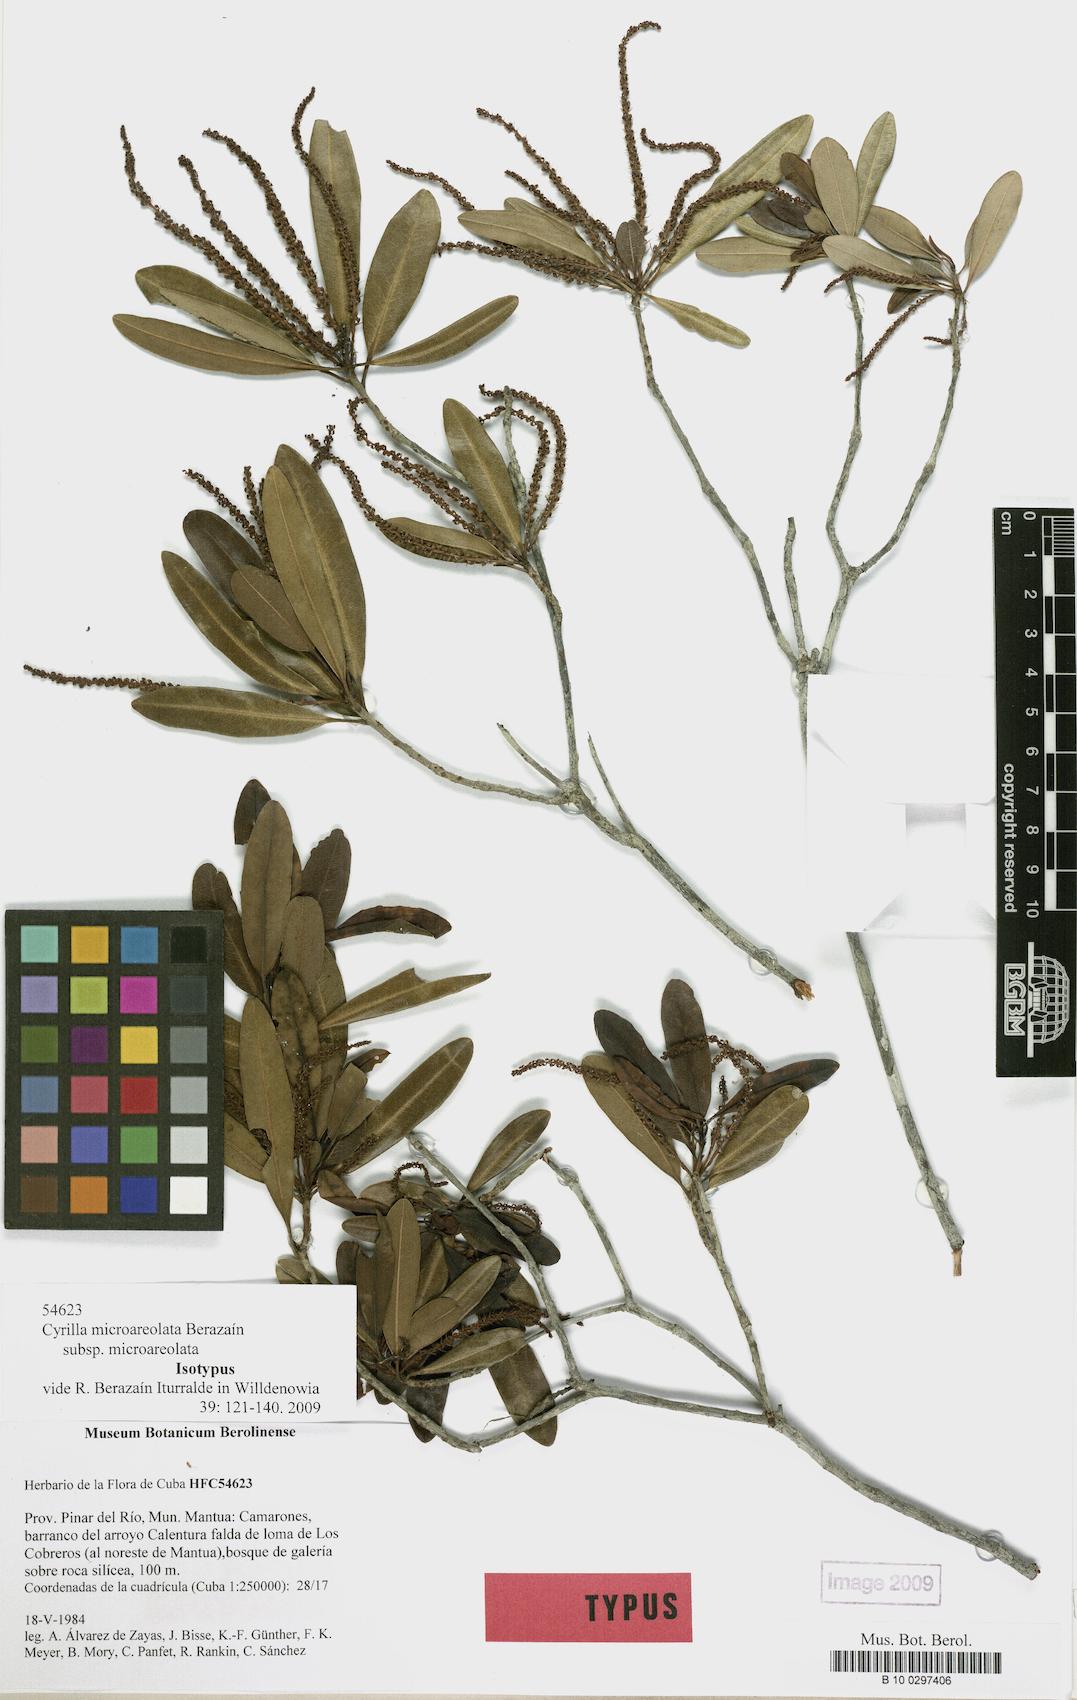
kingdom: Plantae
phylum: Tracheophyta
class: Magnoliopsida
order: Ericales
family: Cyrillaceae
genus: Cyrilla
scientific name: Cyrilla microareolata
